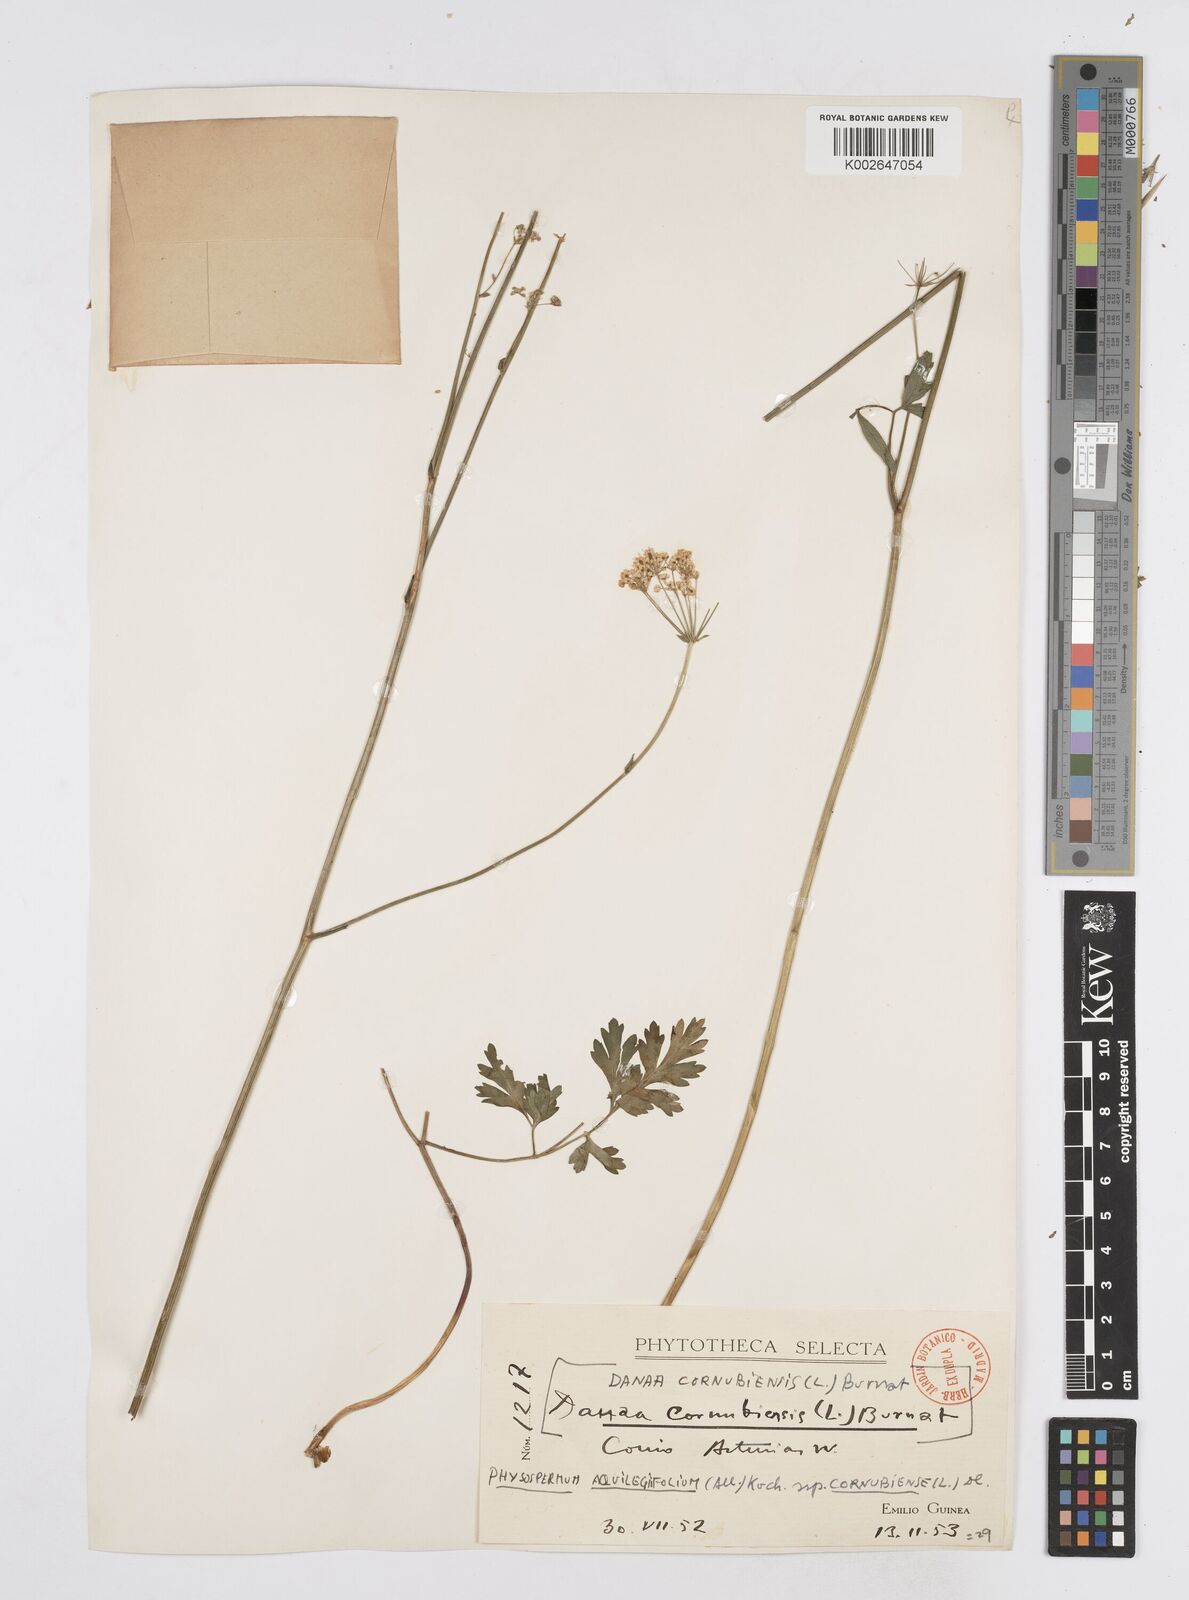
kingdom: Plantae
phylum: Tracheophyta
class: Magnoliopsida
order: Apiales
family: Apiaceae
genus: Physospermum
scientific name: Physospermum cornubiense
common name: Bladderseed
